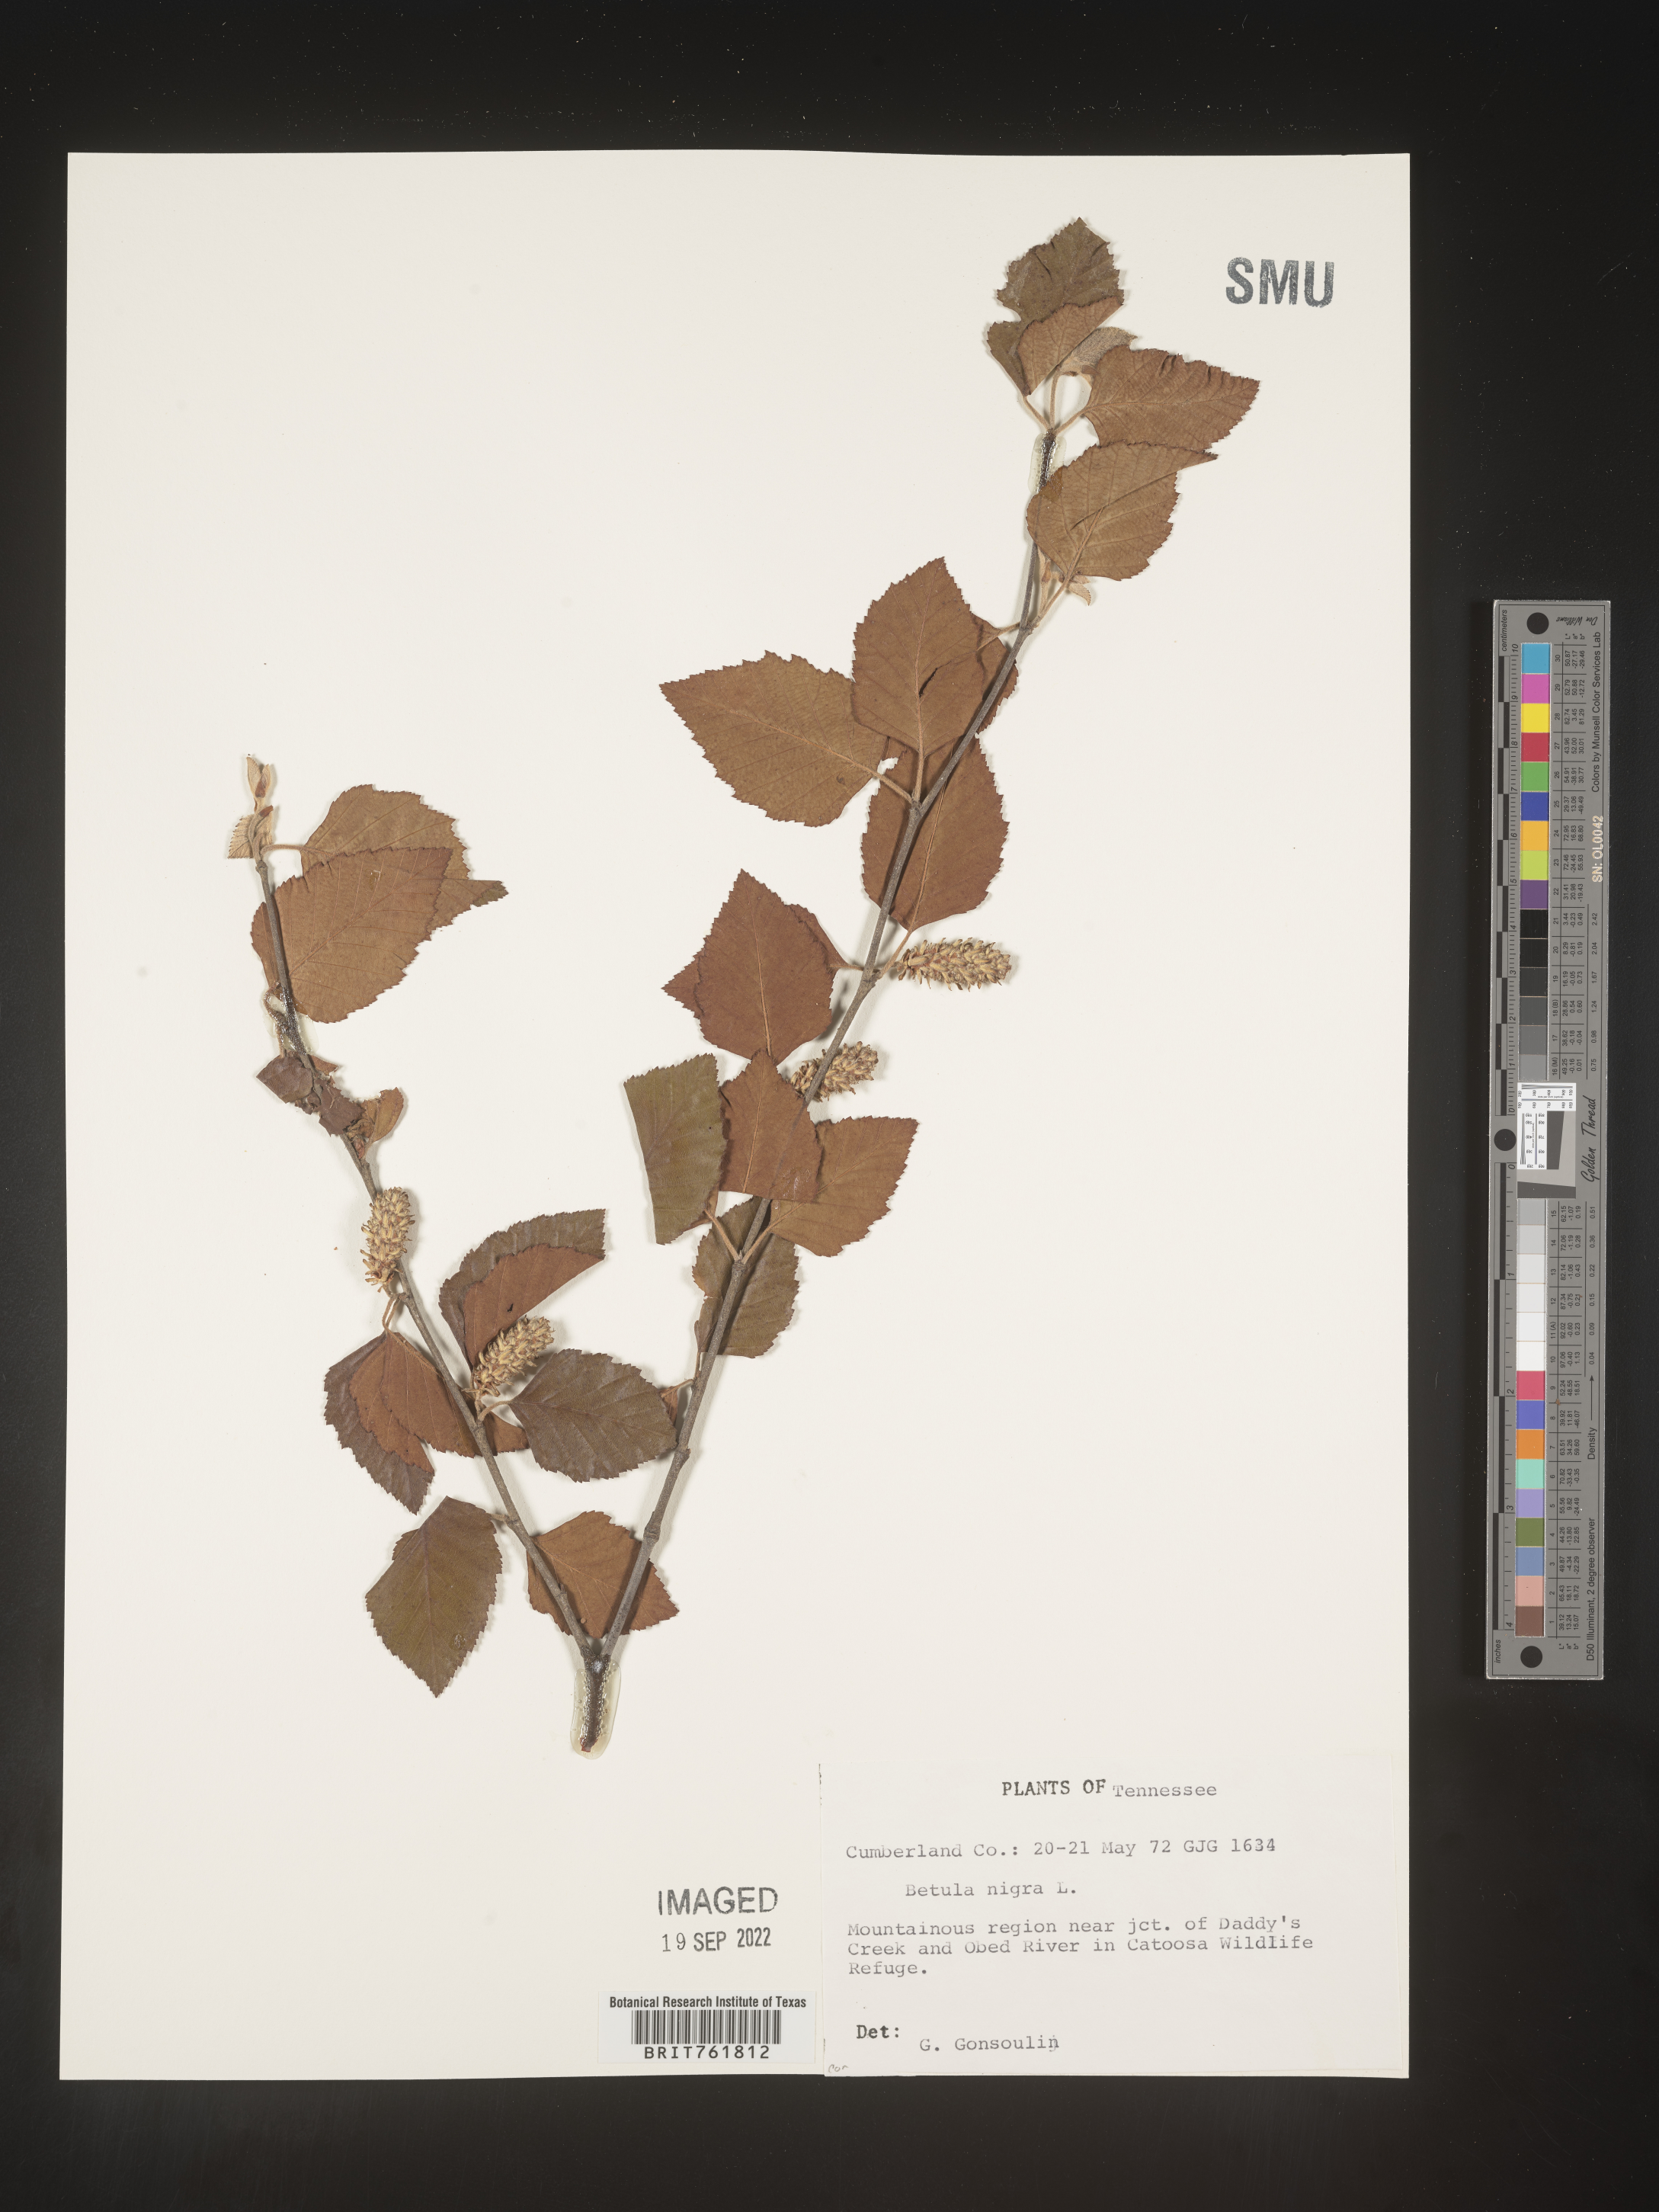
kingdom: Plantae
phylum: Tracheophyta
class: Magnoliopsida
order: Fagales
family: Betulaceae
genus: Betula
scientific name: Betula nigra
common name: Black birch
